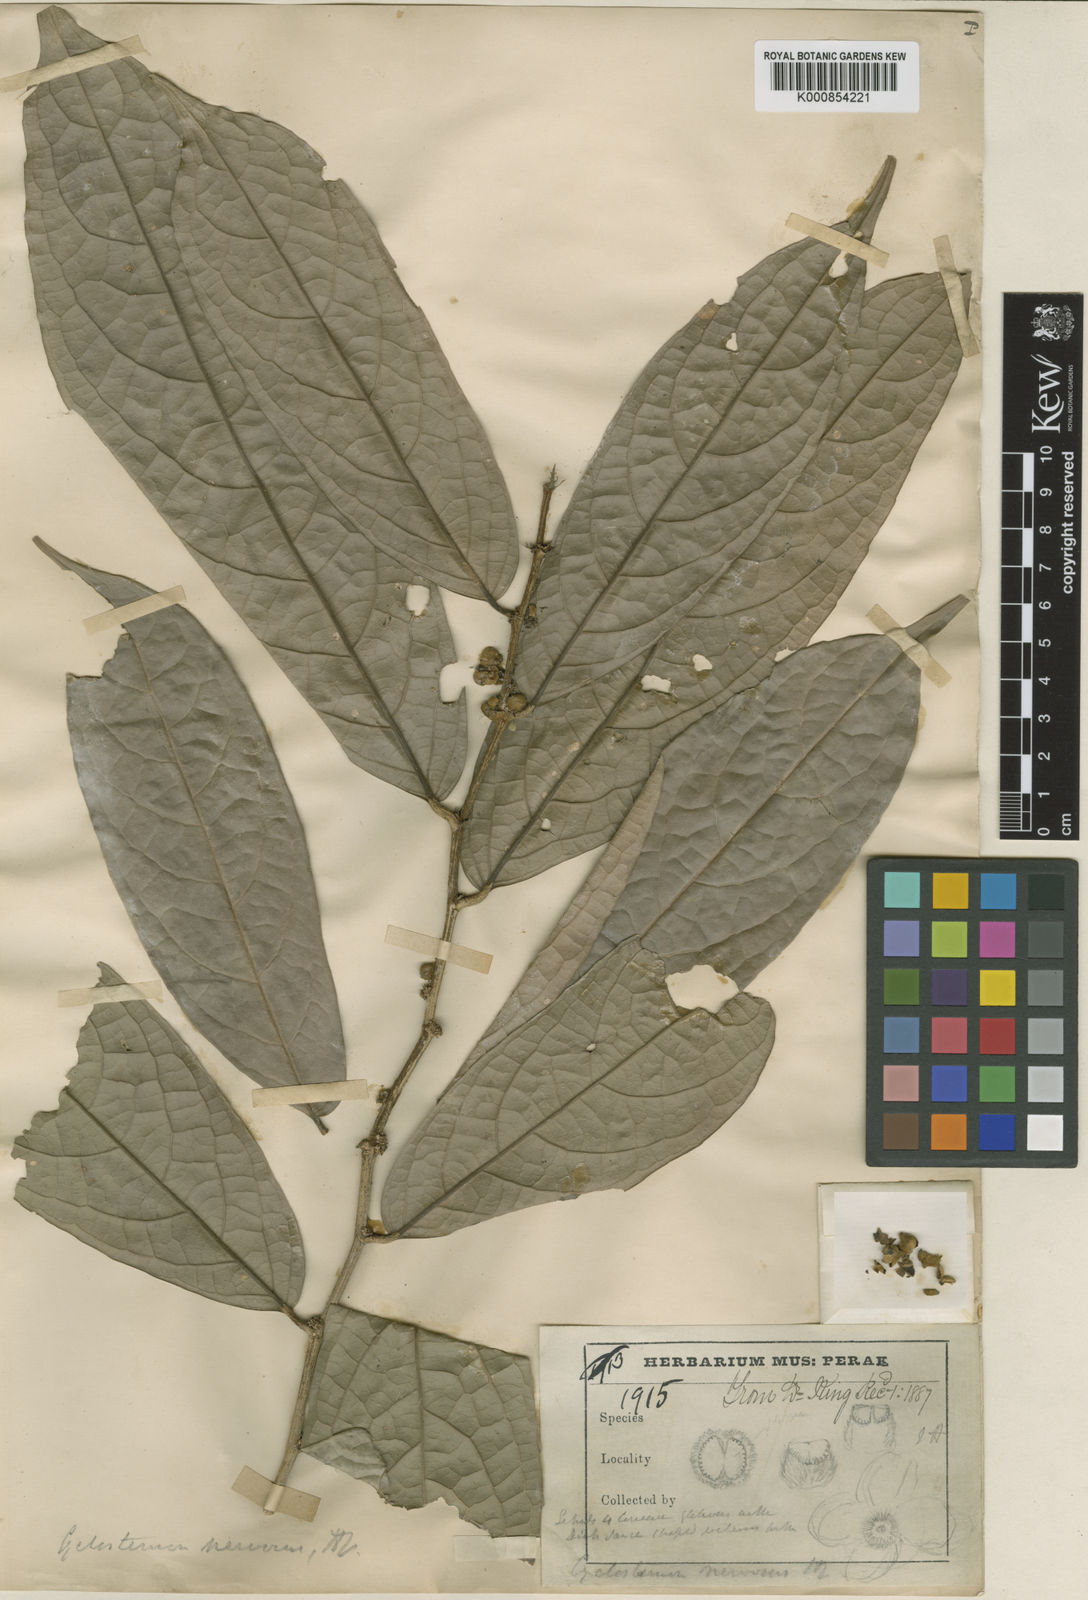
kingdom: Plantae
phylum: Tracheophyta
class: Magnoliopsida
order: Malpighiales
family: Putranjivaceae
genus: Drypetes
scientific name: Drypetes nervosa
